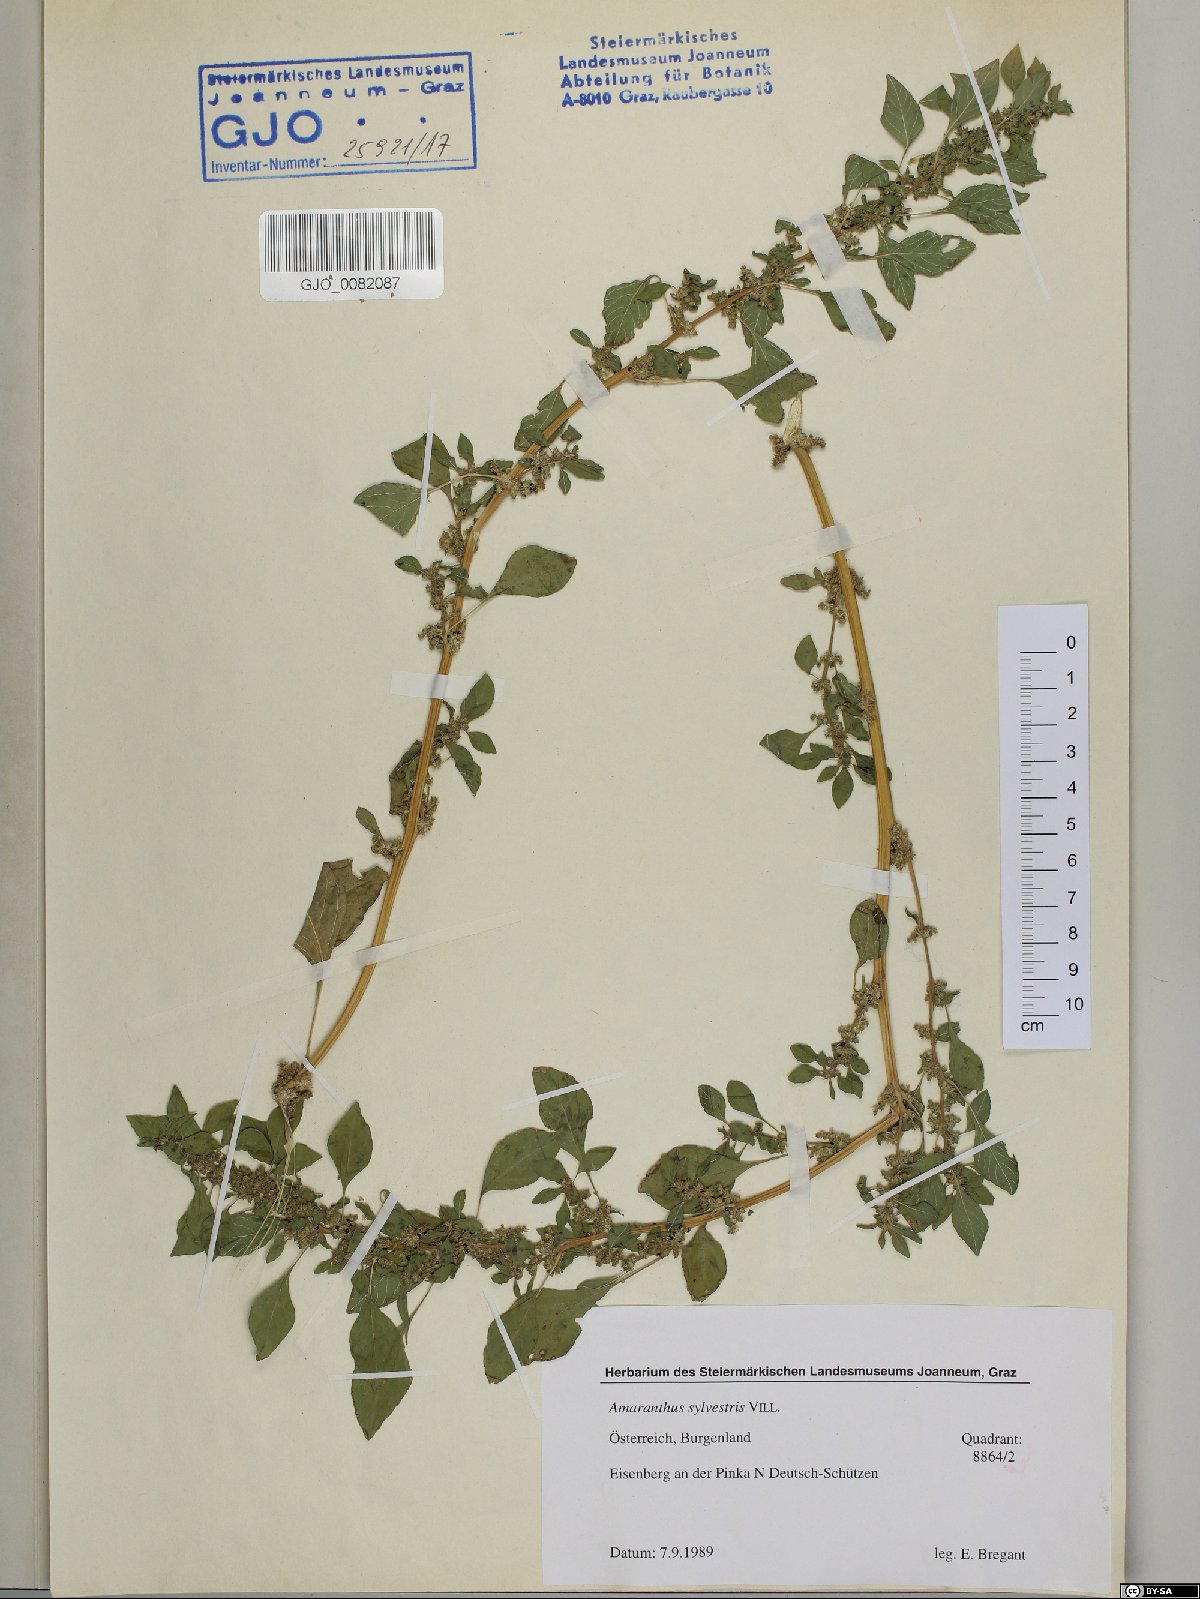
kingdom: Plantae
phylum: Tracheophyta
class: Magnoliopsida
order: Caryophyllales
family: Amaranthaceae
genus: Amaranthus
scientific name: Amaranthus graecizans
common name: Mediterranean amaranth
